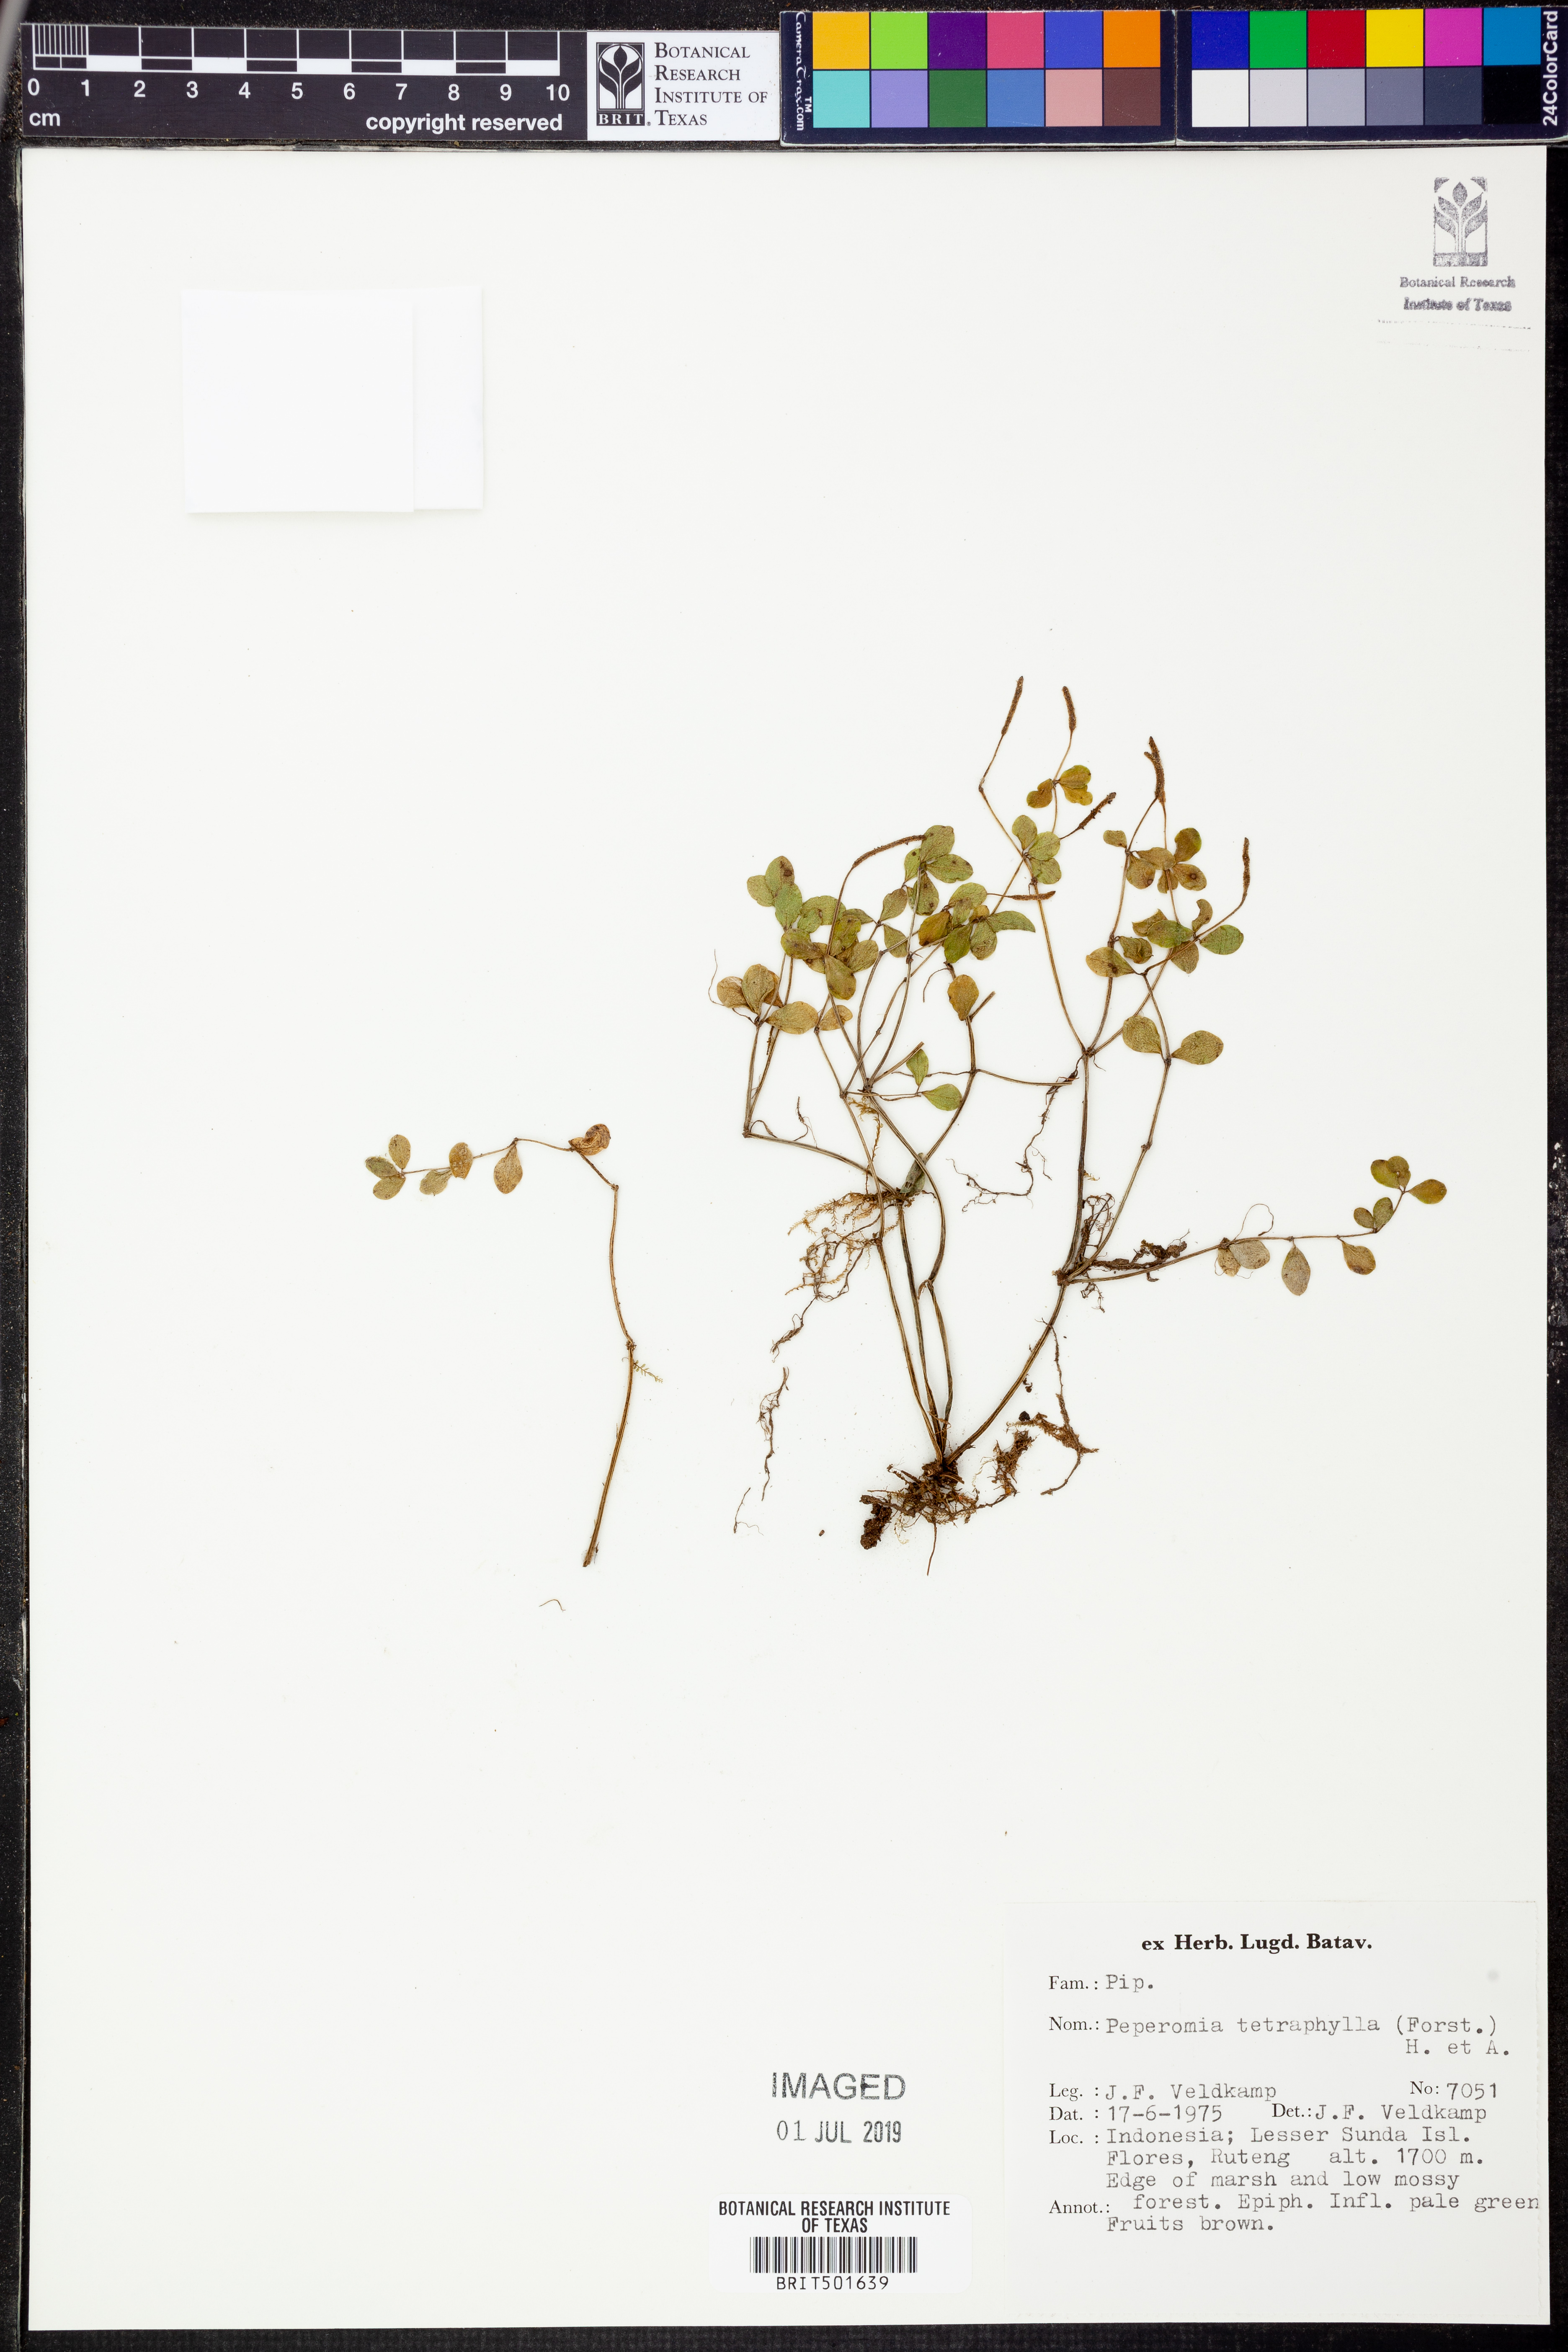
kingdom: Plantae
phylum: Tracheophyta
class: Magnoliopsida
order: Piperales
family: Piperaceae
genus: Peperomia
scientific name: Peperomia tetraphylla
